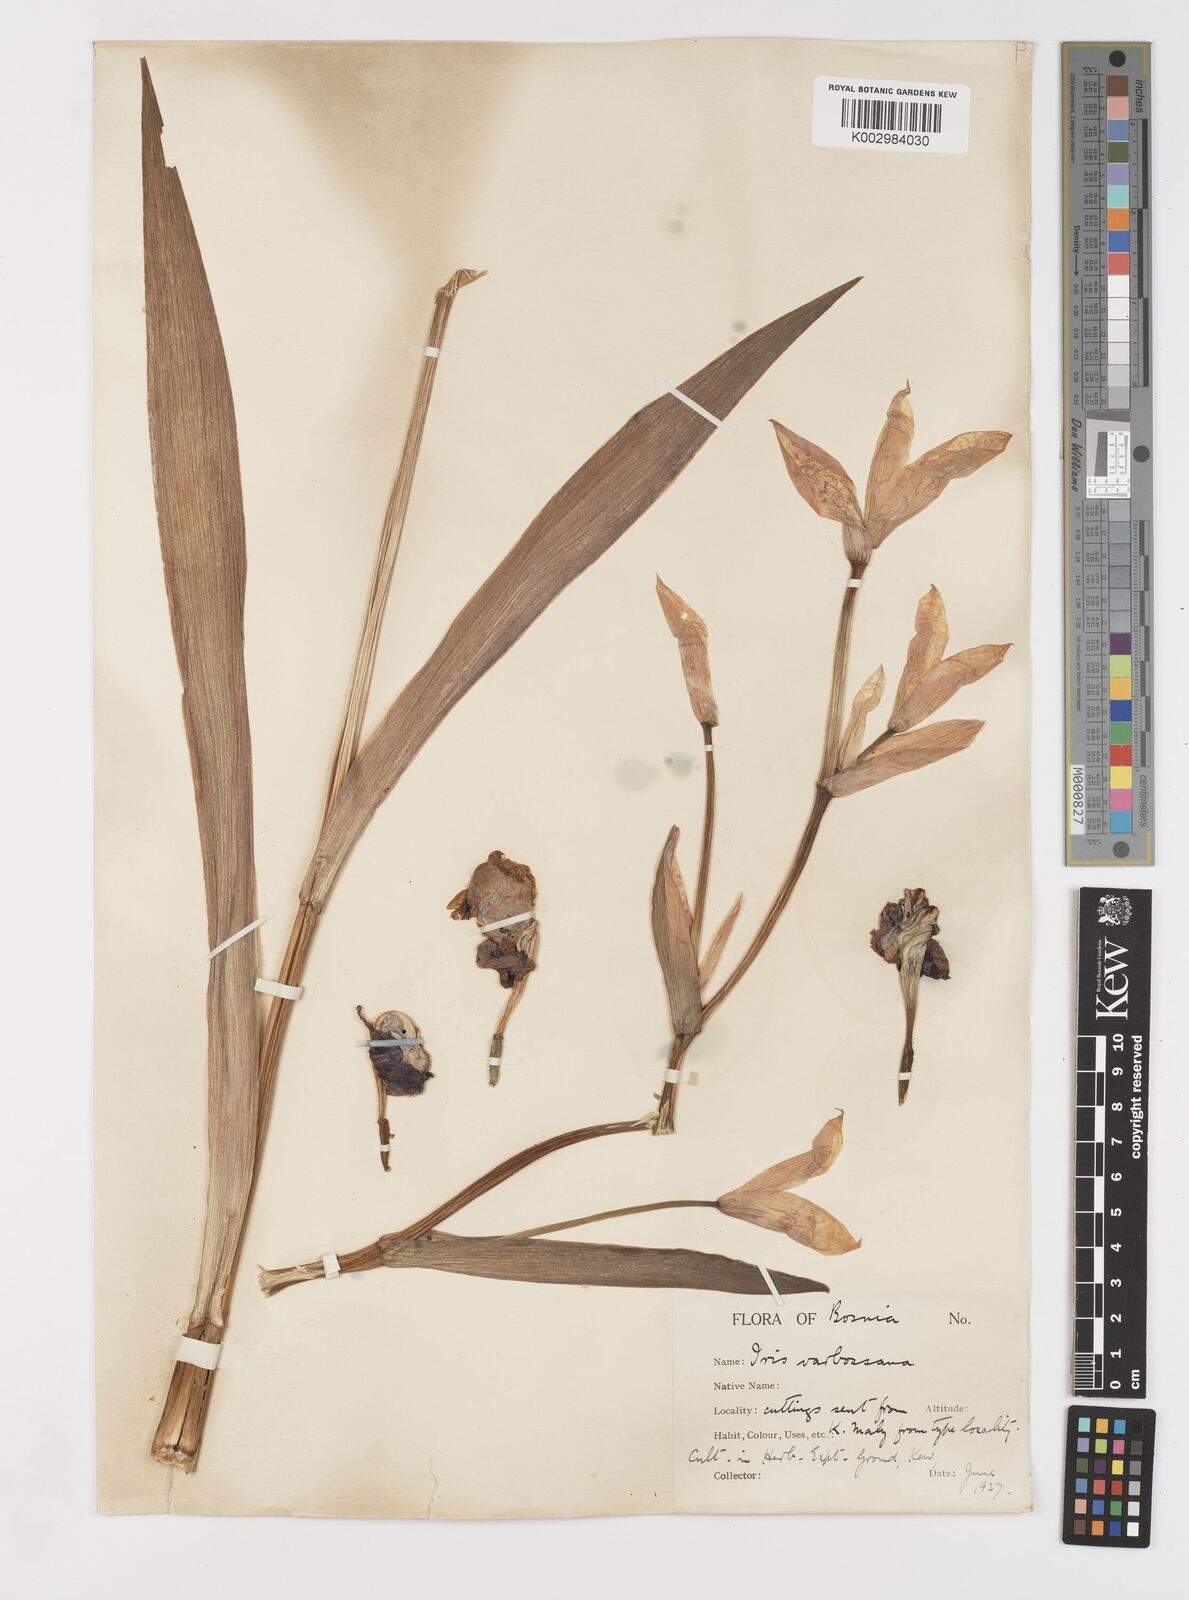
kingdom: Plantae
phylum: Tracheophyta
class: Liliopsida
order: Asparagales
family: Iridaceae
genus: Iris
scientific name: Iris germanica
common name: German iris
